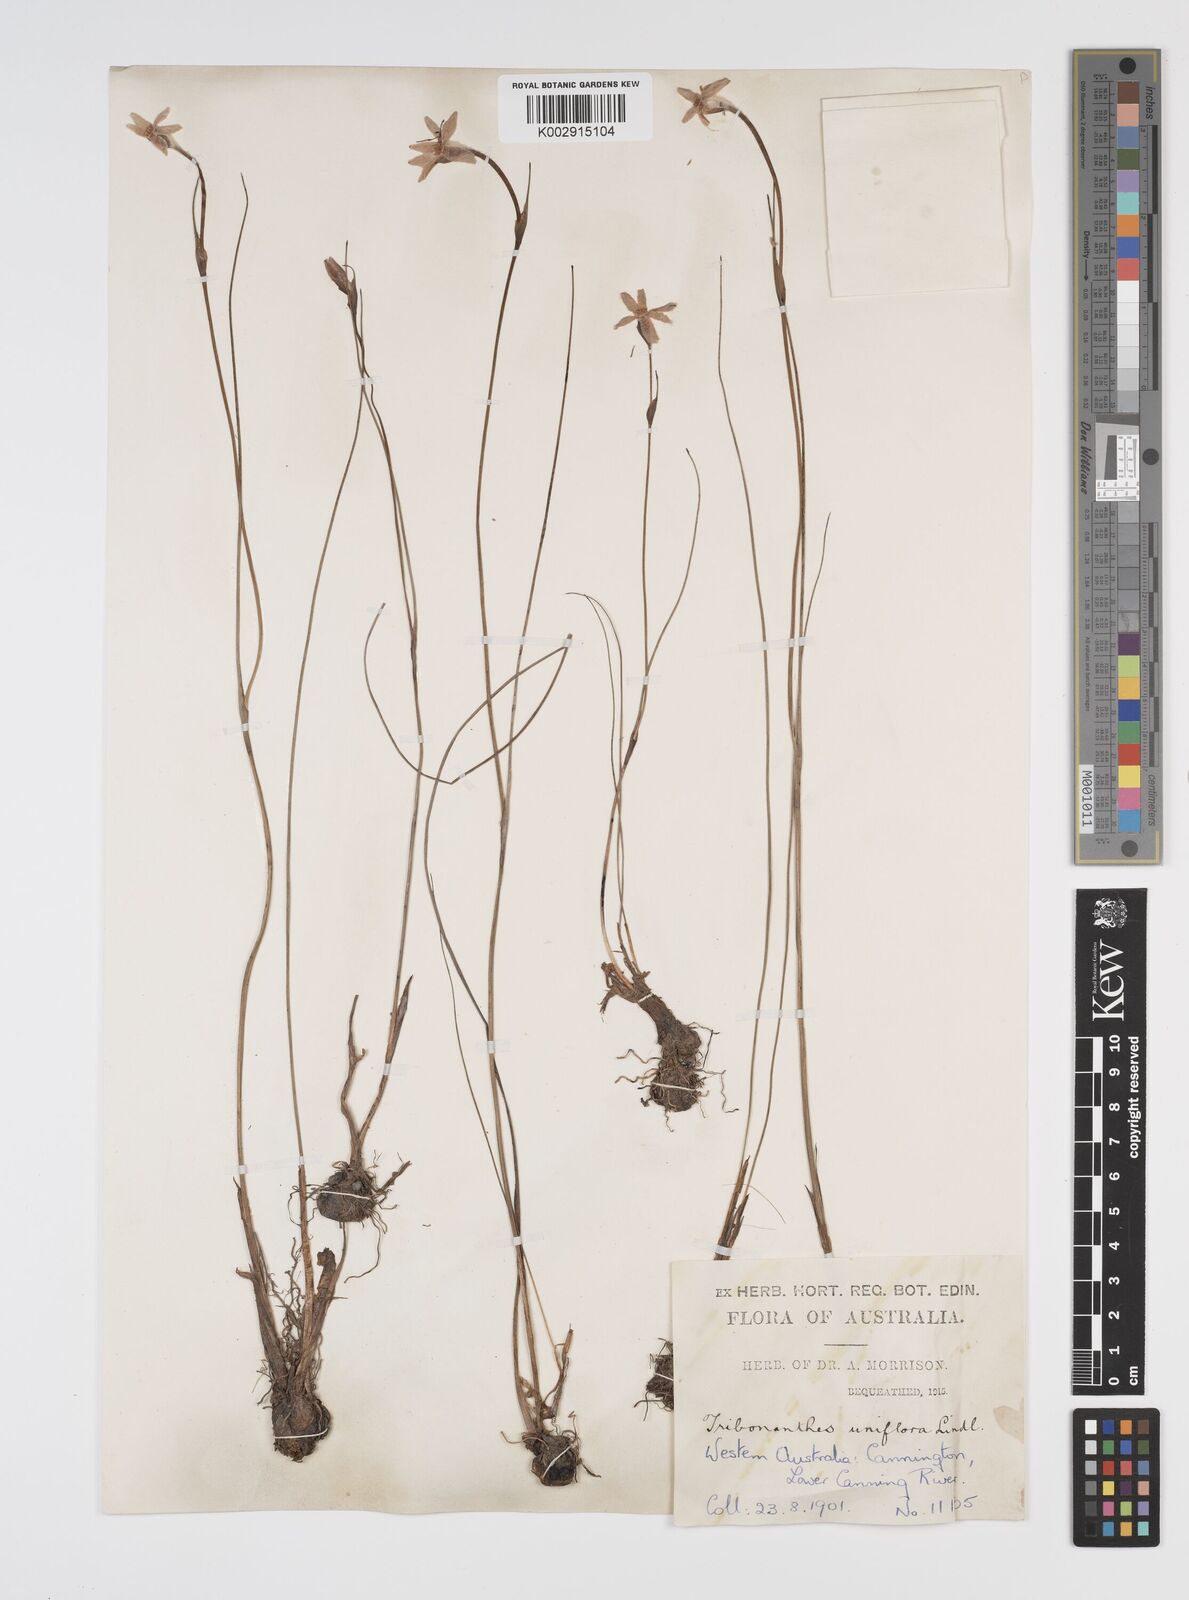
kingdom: Plantae
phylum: Tracheophyta
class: Liliopsida
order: Commelinales
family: Haemodoraceae
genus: Tribonanthes
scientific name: Tribonanthes uniflora
